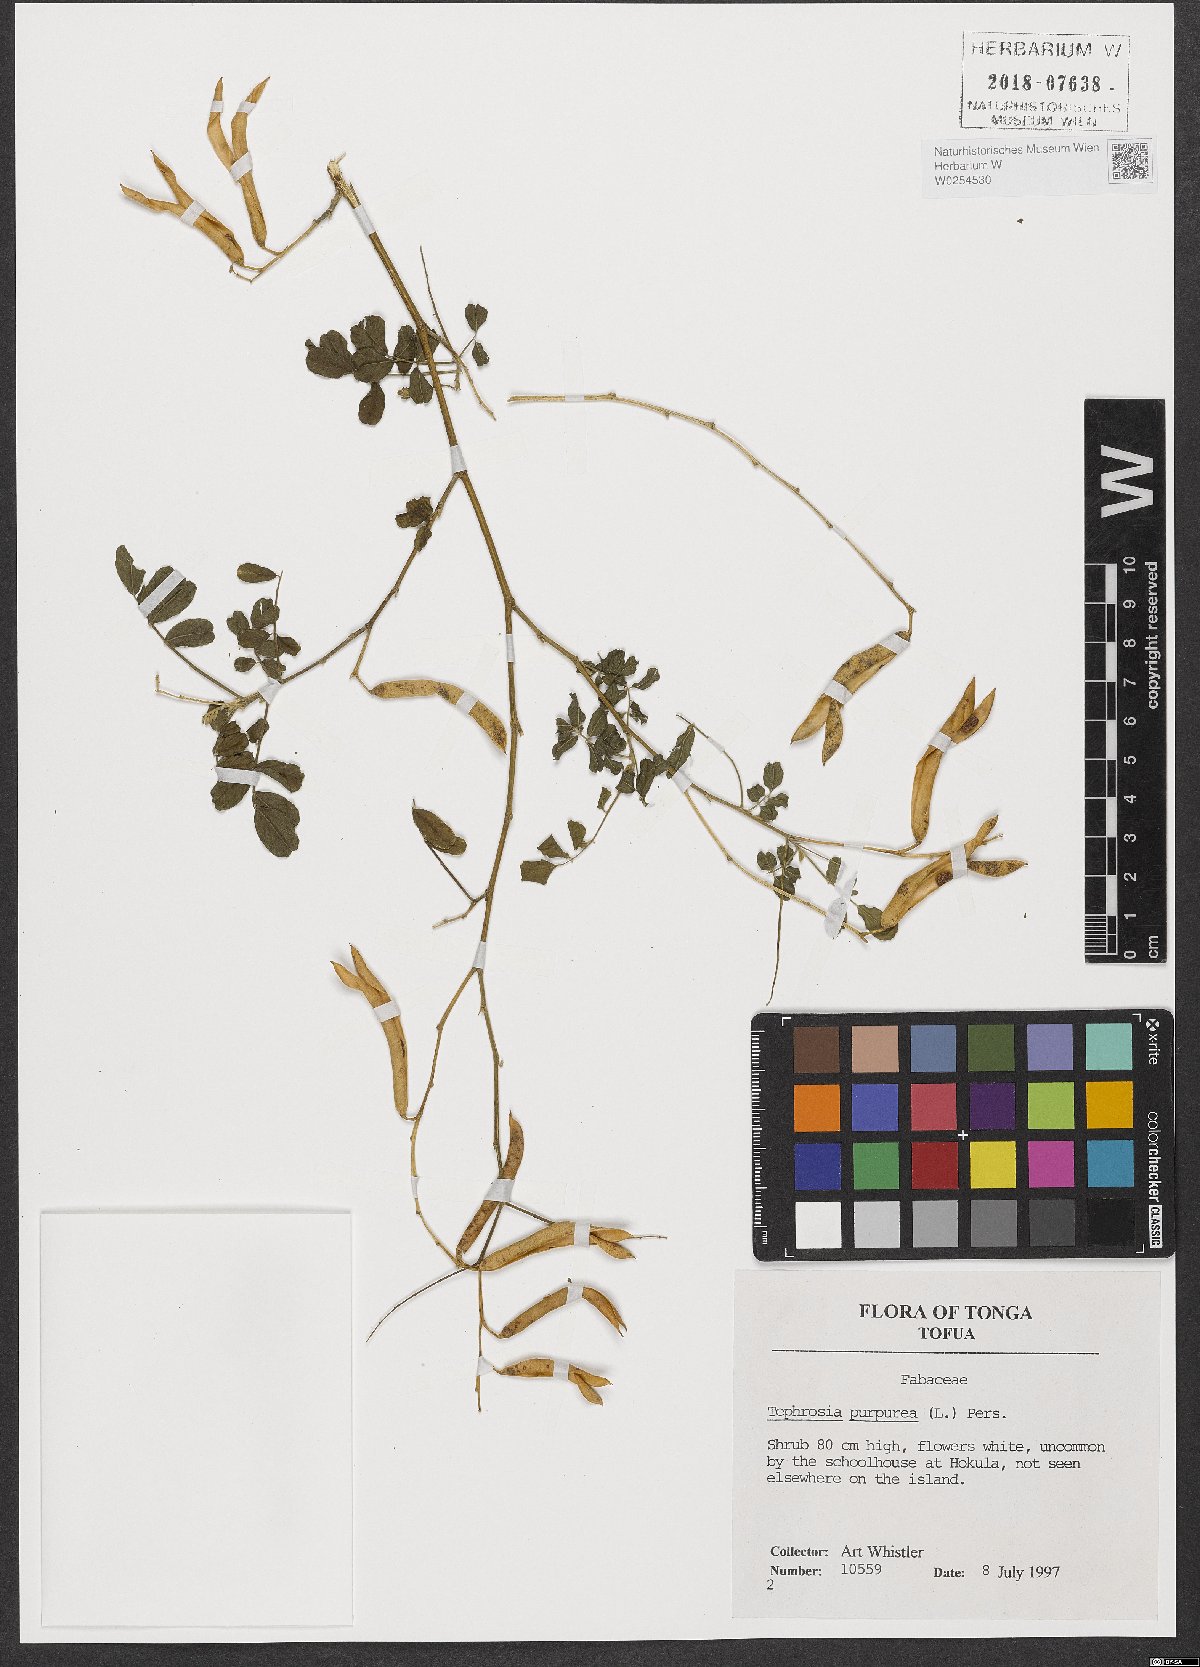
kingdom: Plantae
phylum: Tracheophyta
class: Magnoliopsida
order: Fabales
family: Fabaceae
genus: Tephrosia
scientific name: Tephrosia purpurea
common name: Fishpoison
